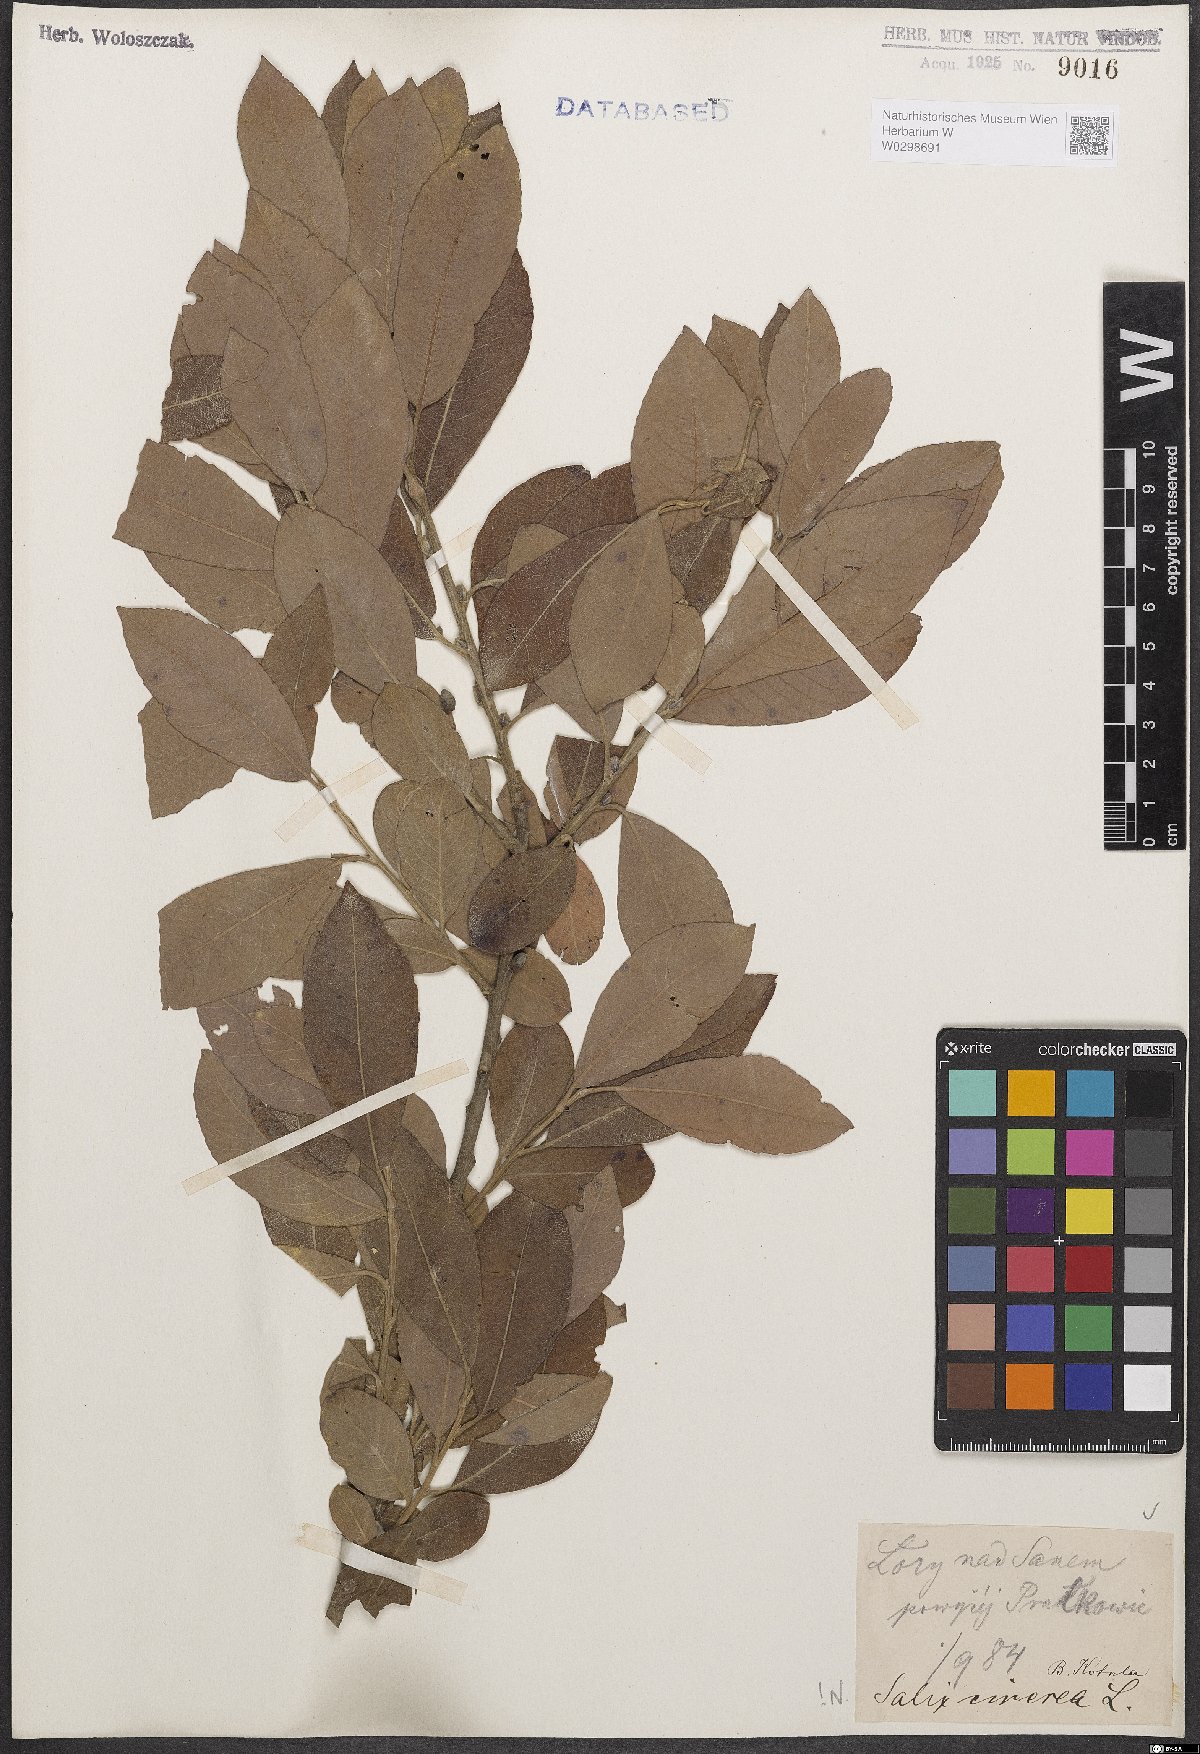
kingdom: Plantae
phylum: Tracheophyta
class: Magnoliopsida
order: Malpighiales
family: Salicaceae
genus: Salix
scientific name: Salix cinerea
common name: Common sallow
